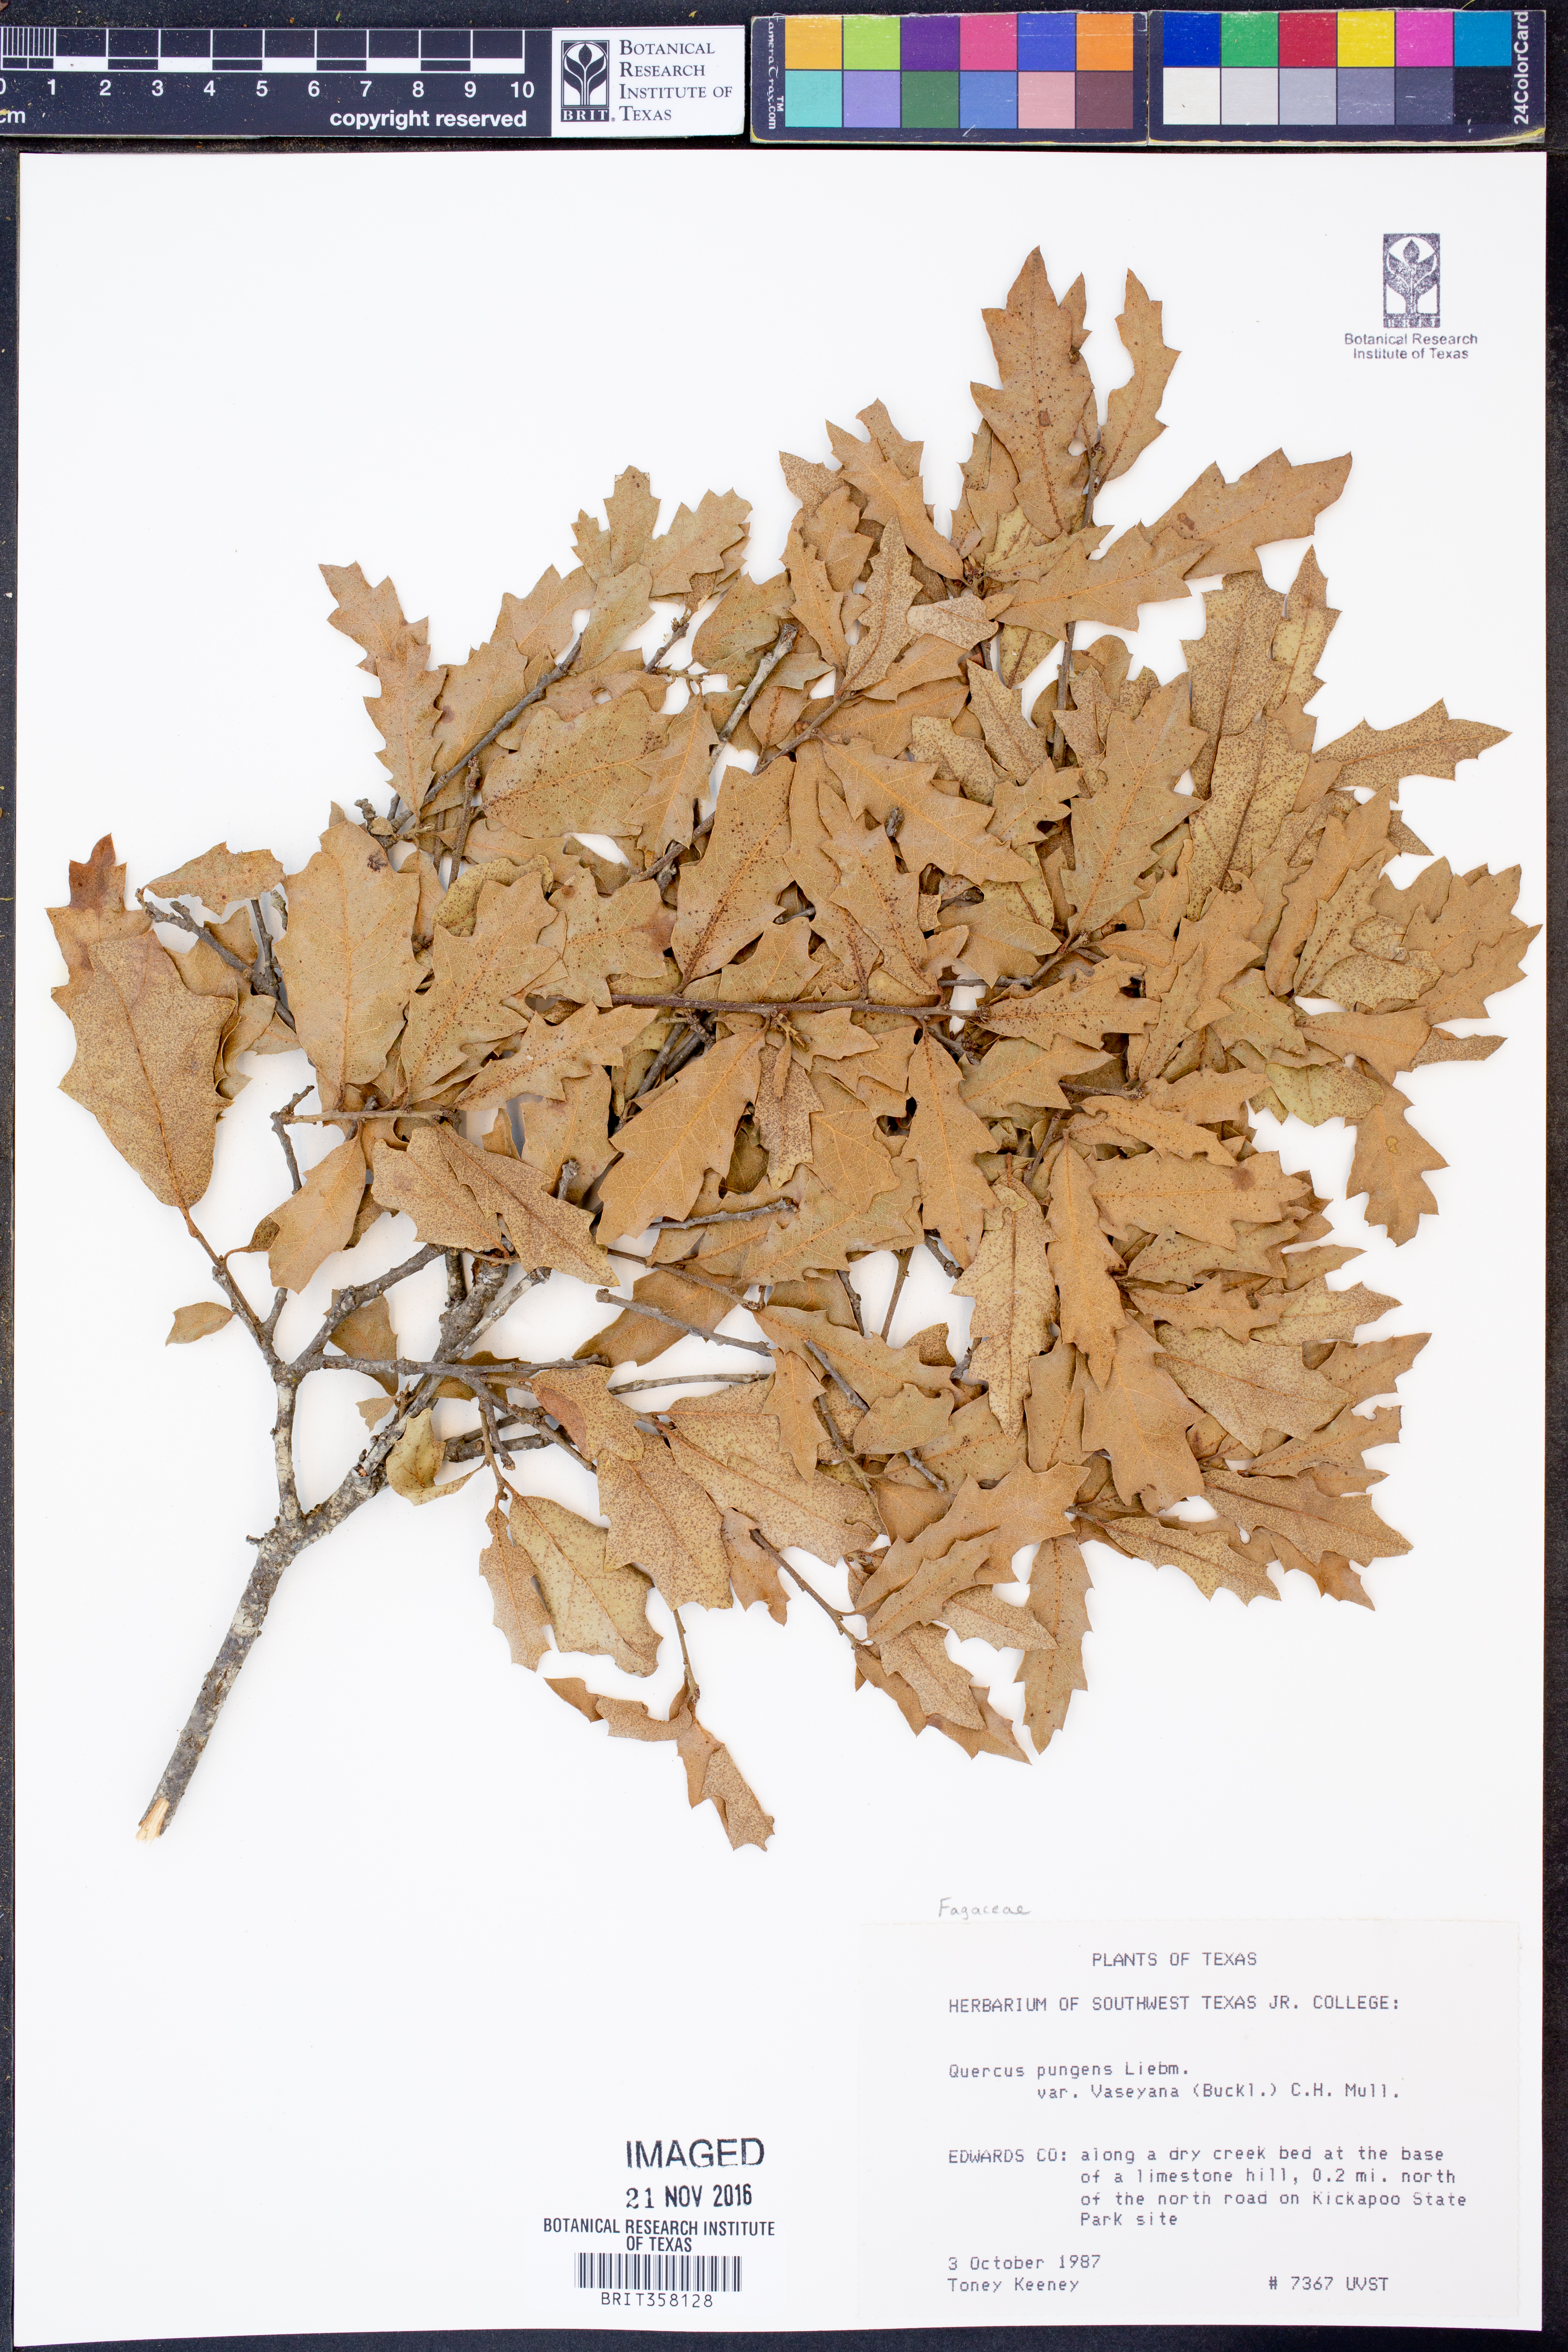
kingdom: Plantae
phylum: Tracheophyta
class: Magnoliopsida
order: Fagales
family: Fagaceae
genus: Quercus
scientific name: Quercus vaseyana
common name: Sandpaper oak
